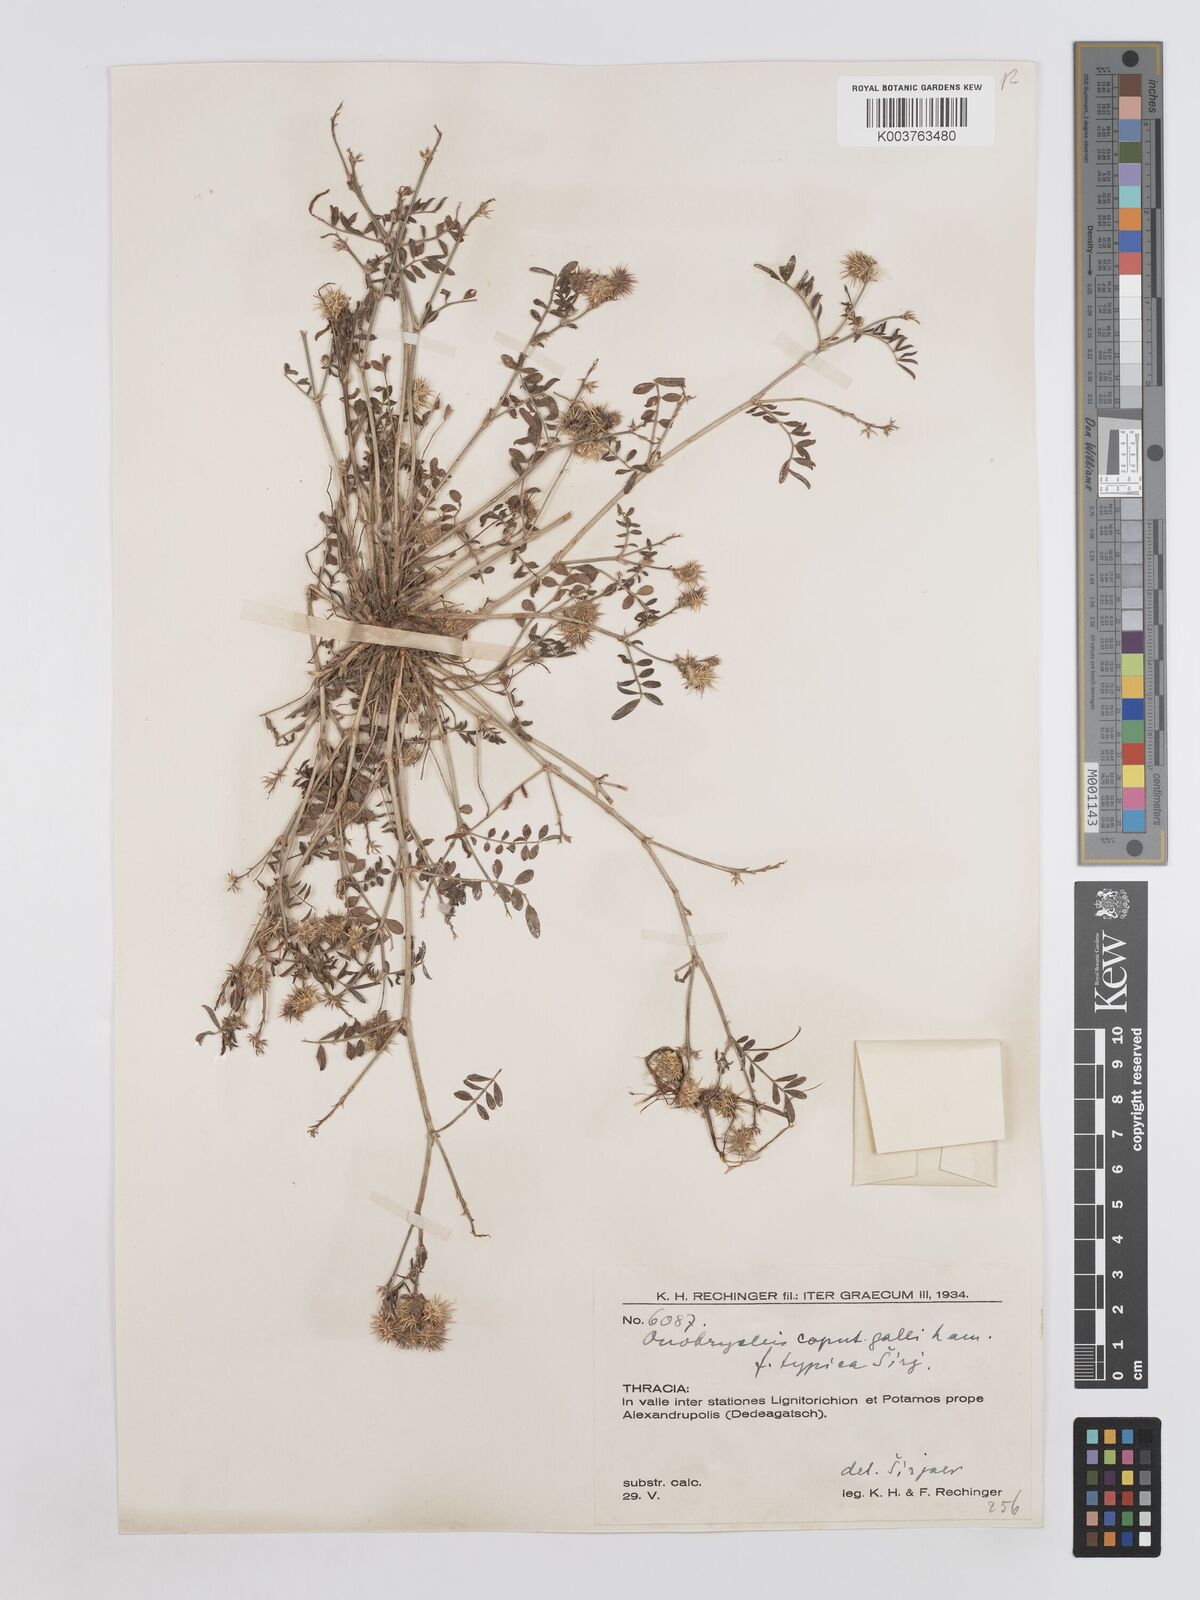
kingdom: Plantae
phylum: Tracheophyta
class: Magnoliopsida
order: Fabales
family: Fabaceae
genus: Onobrychis
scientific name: Onobrychis caput-galli
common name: Cockscomb sainfoin
